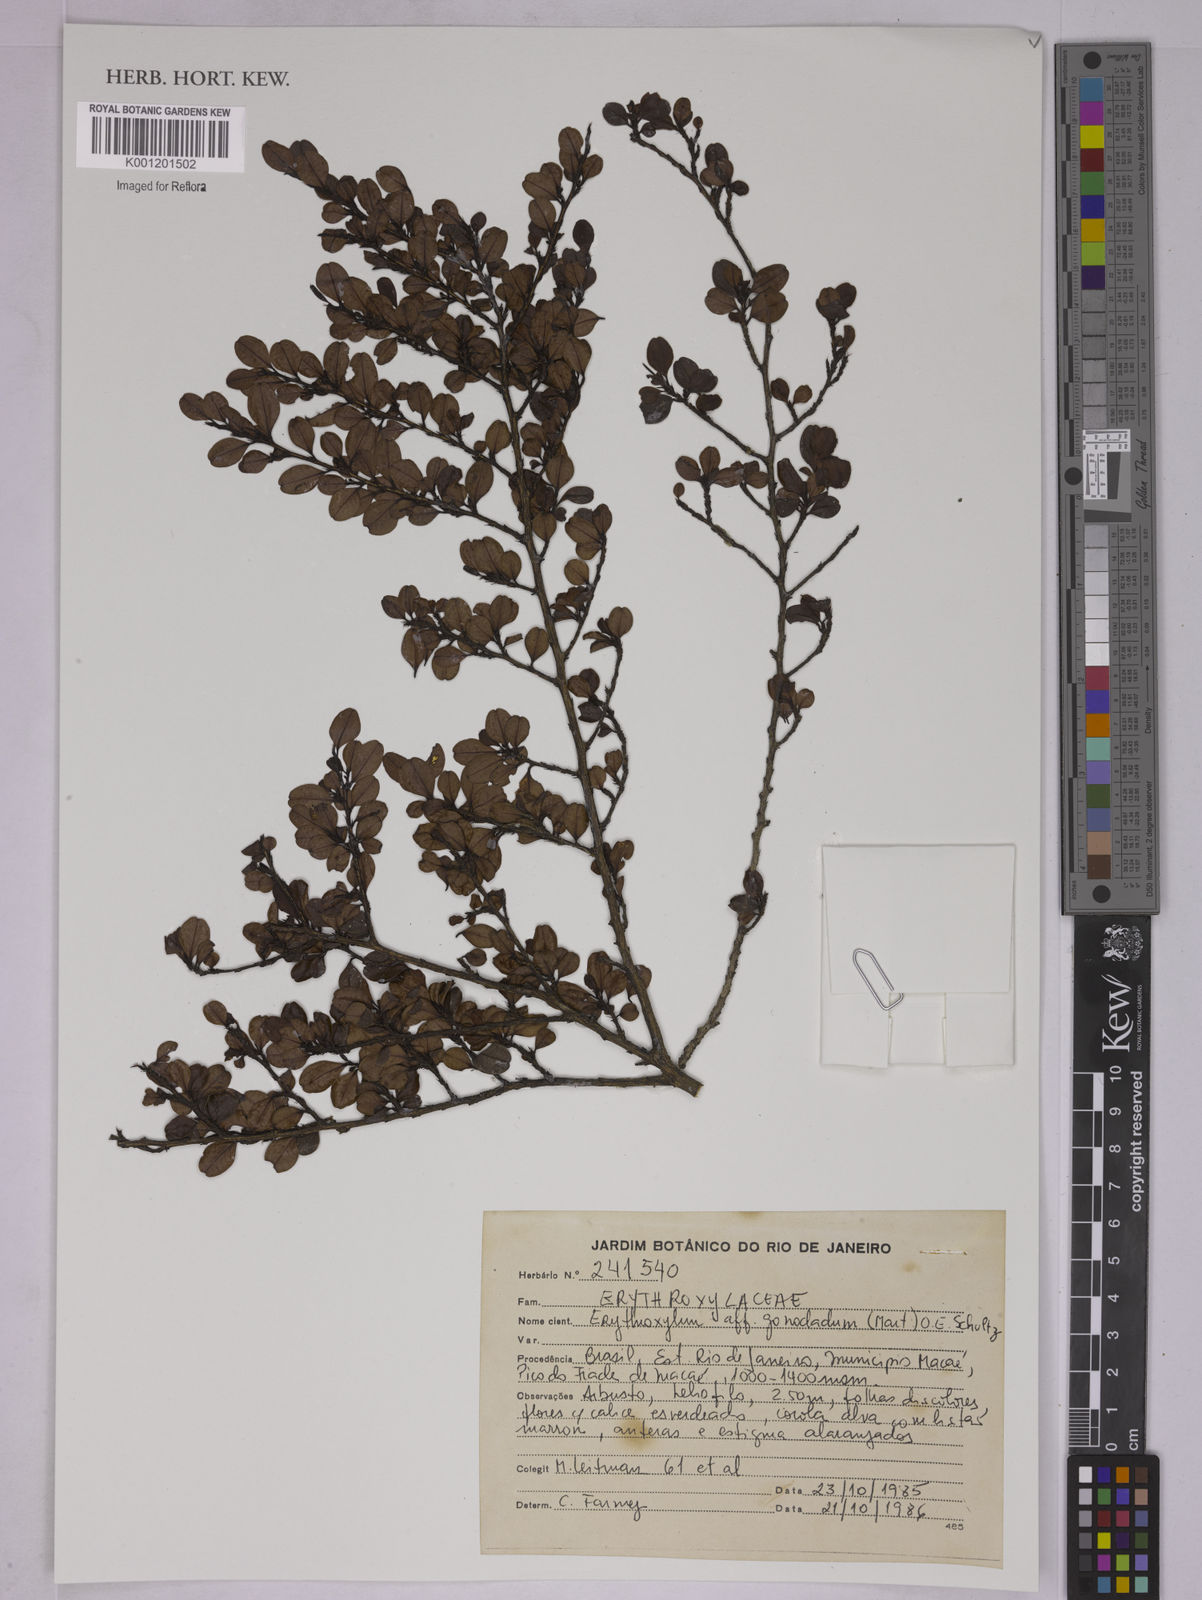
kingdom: Plantae
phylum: Tracheophyta
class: Magnoliopsida
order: Malpighiales
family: Erythroxylaceae
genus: Erythroxylum
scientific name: Erythroxylum
